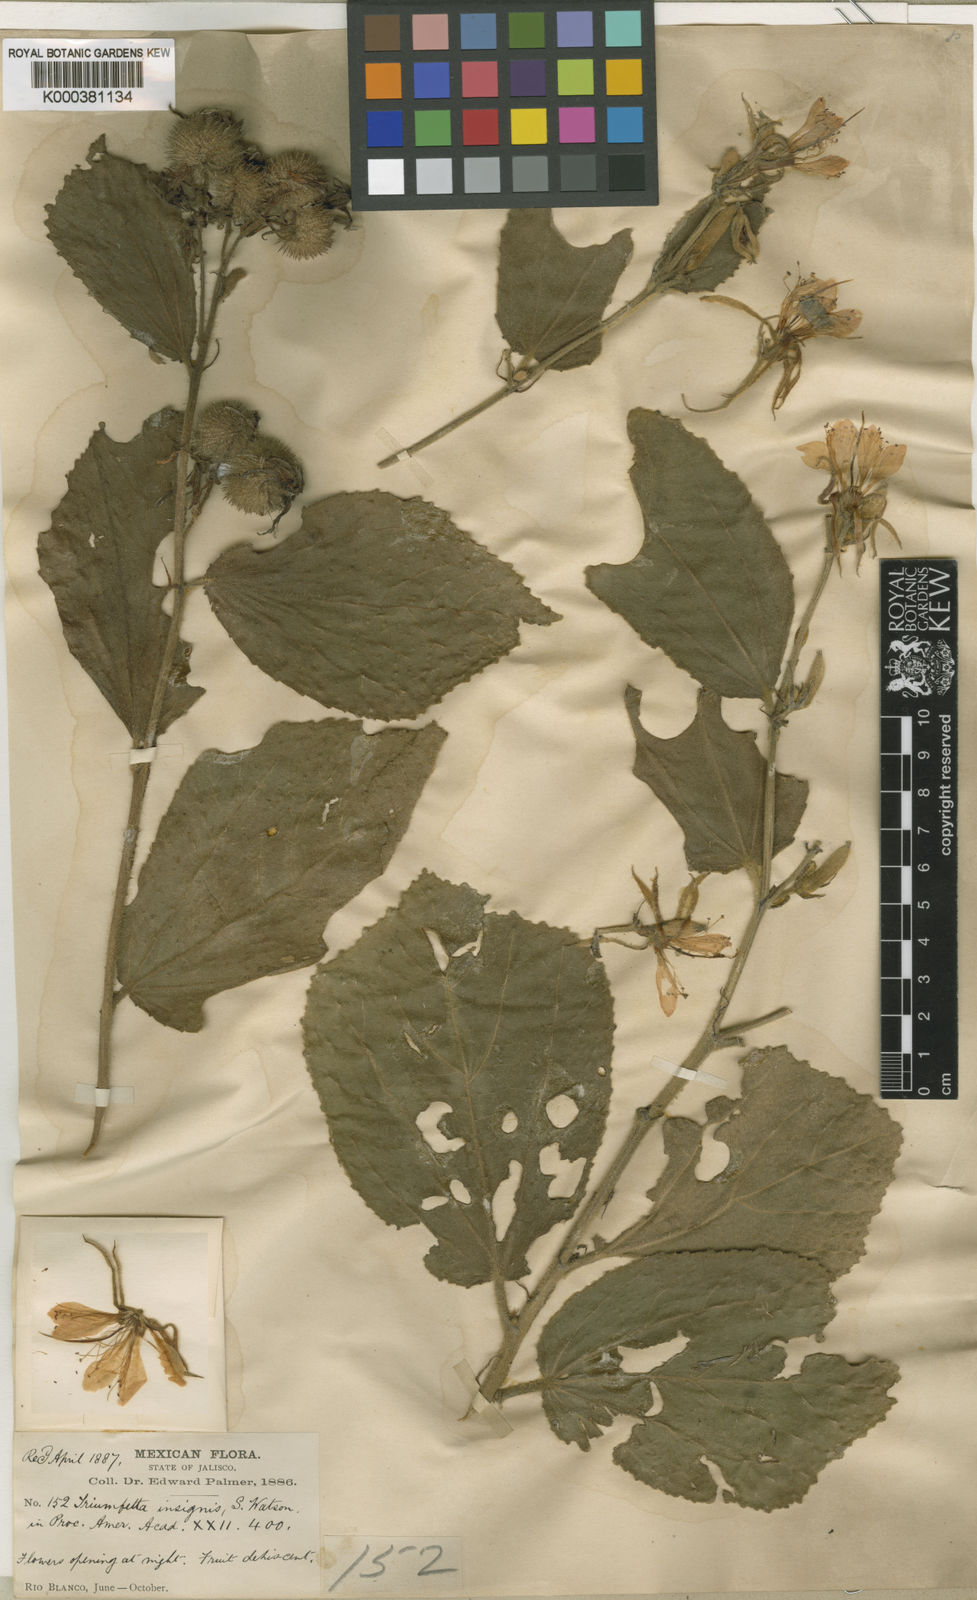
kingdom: Plantae
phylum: Tracheophyta
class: Magnoliopsida
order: Malvales
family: Malvaceae
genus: Triumfetta
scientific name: Triumfetta
